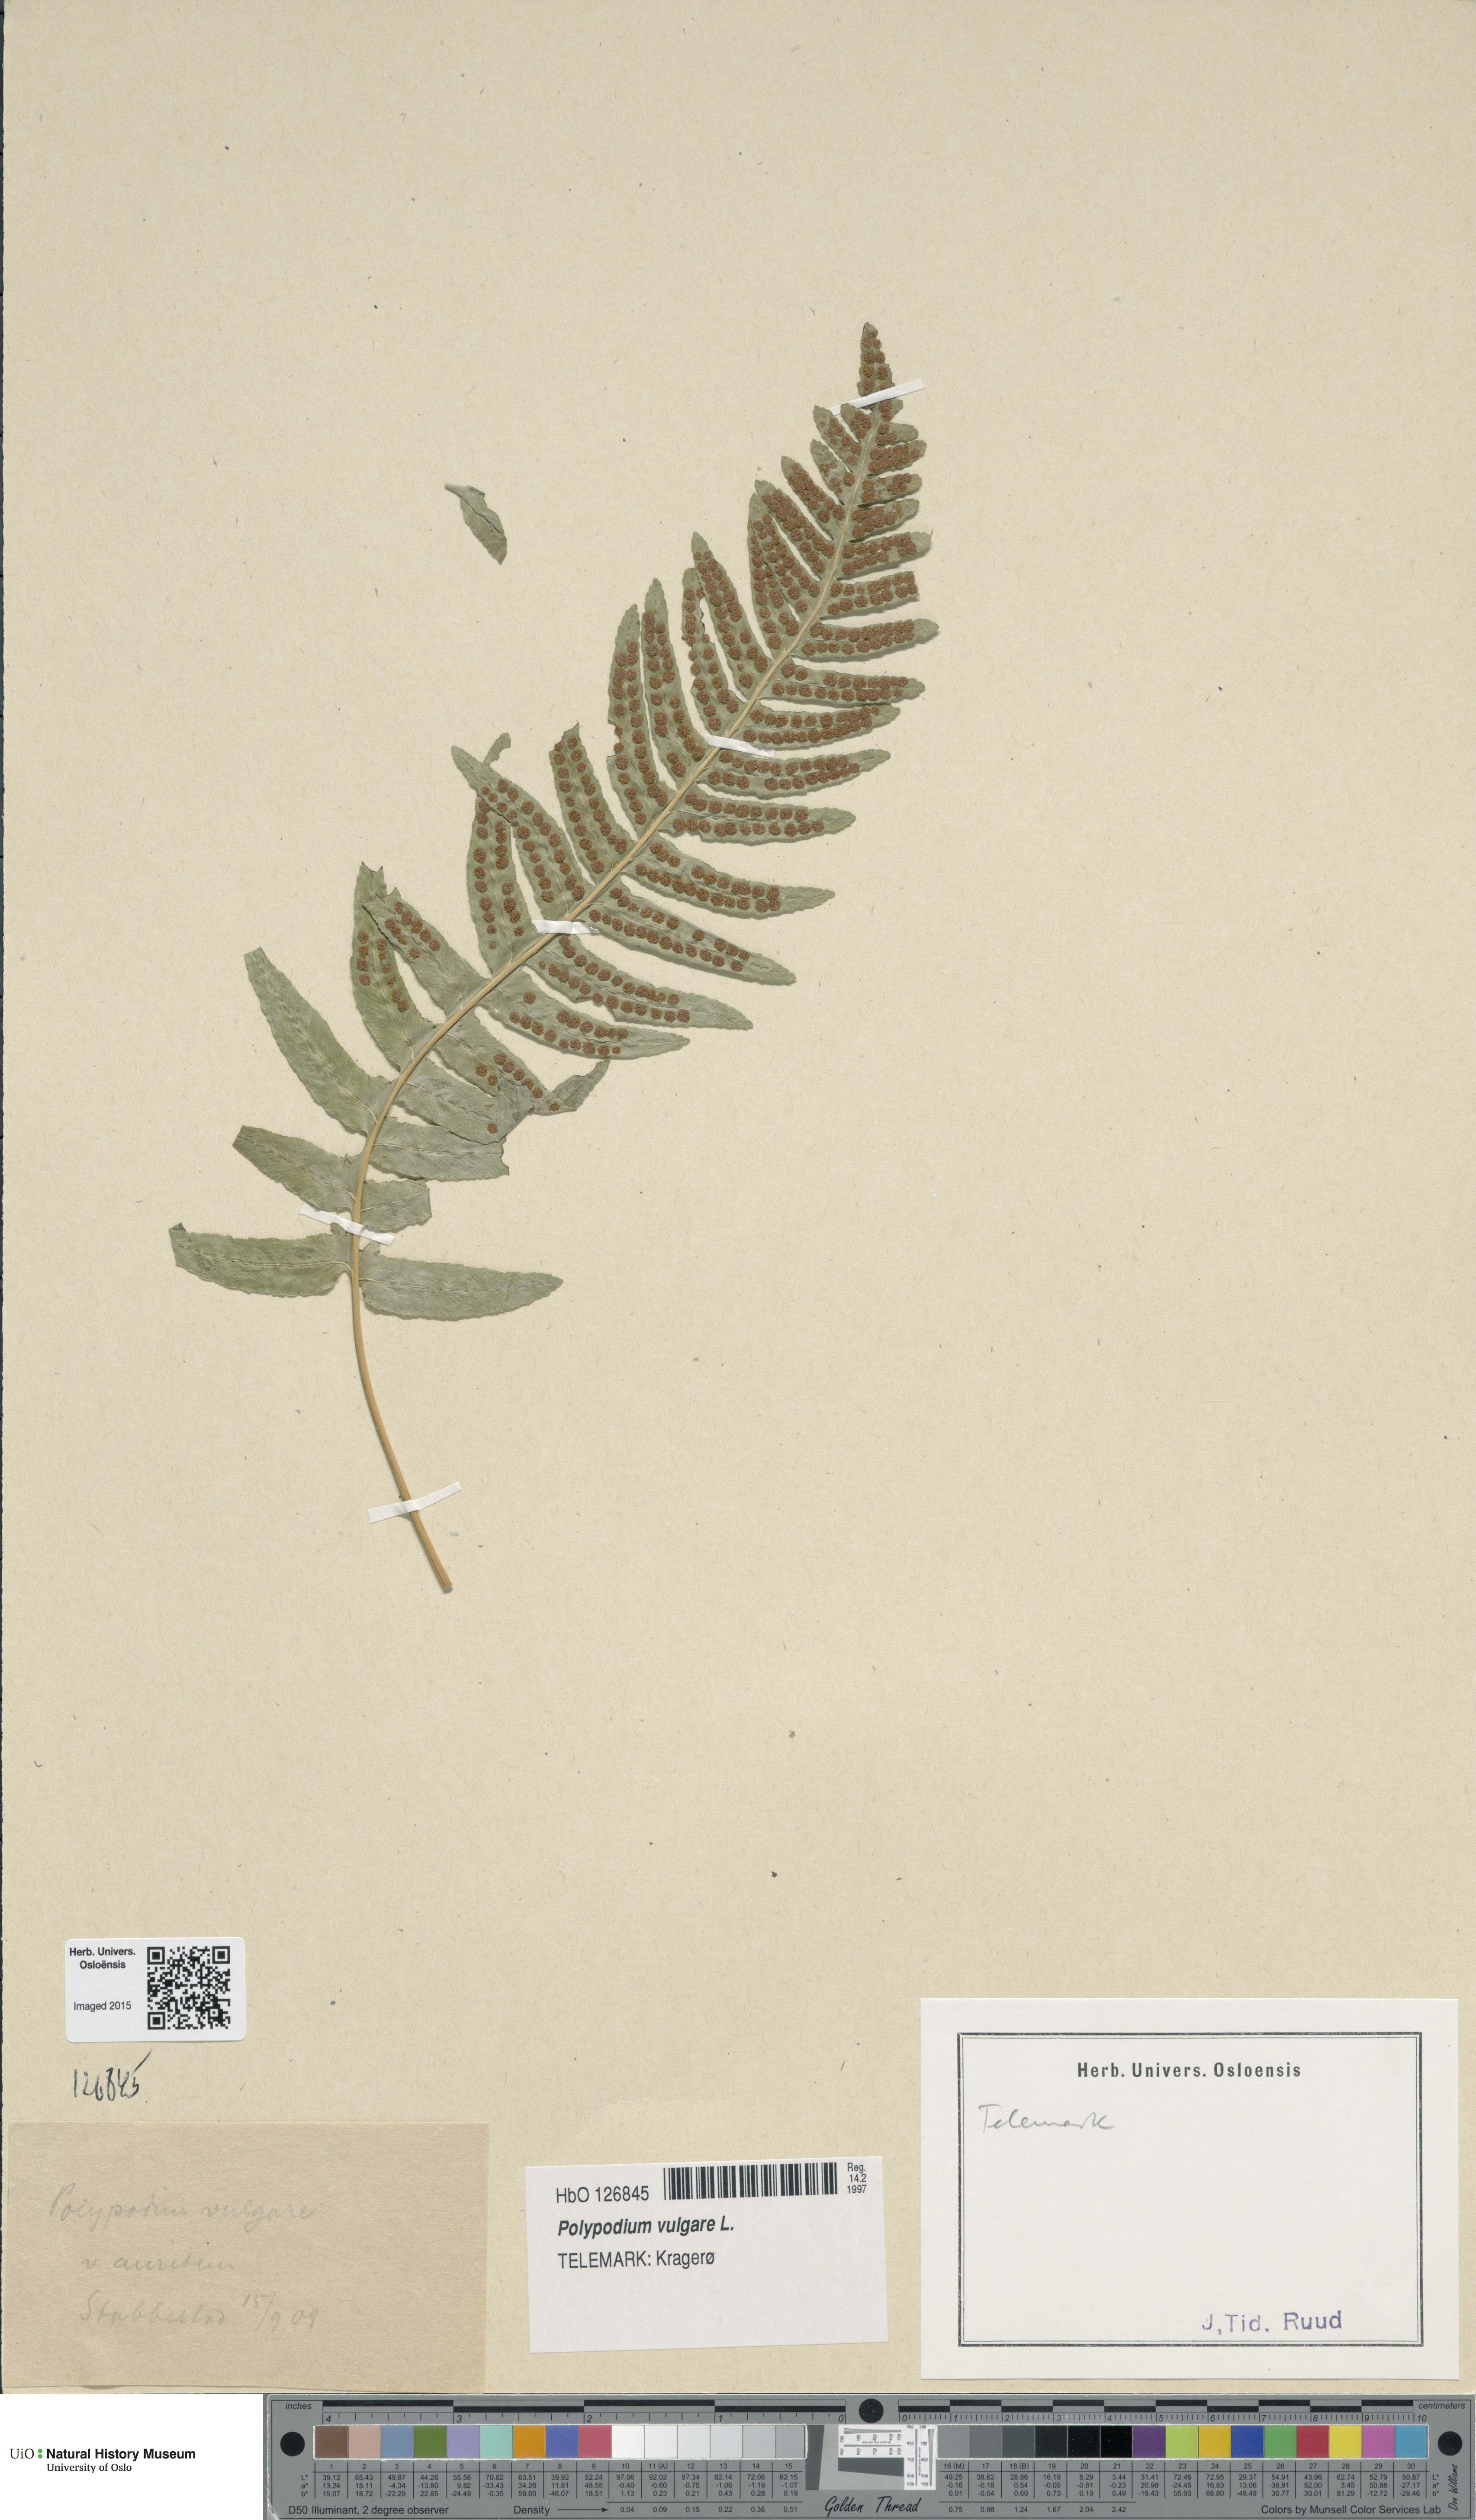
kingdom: Plantae
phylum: Tracheophyta
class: Polypodiopsida
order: Polypodiales
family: Polypodiaceae
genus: Polypodium
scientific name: Polypodium vulgare
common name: Common polypody
